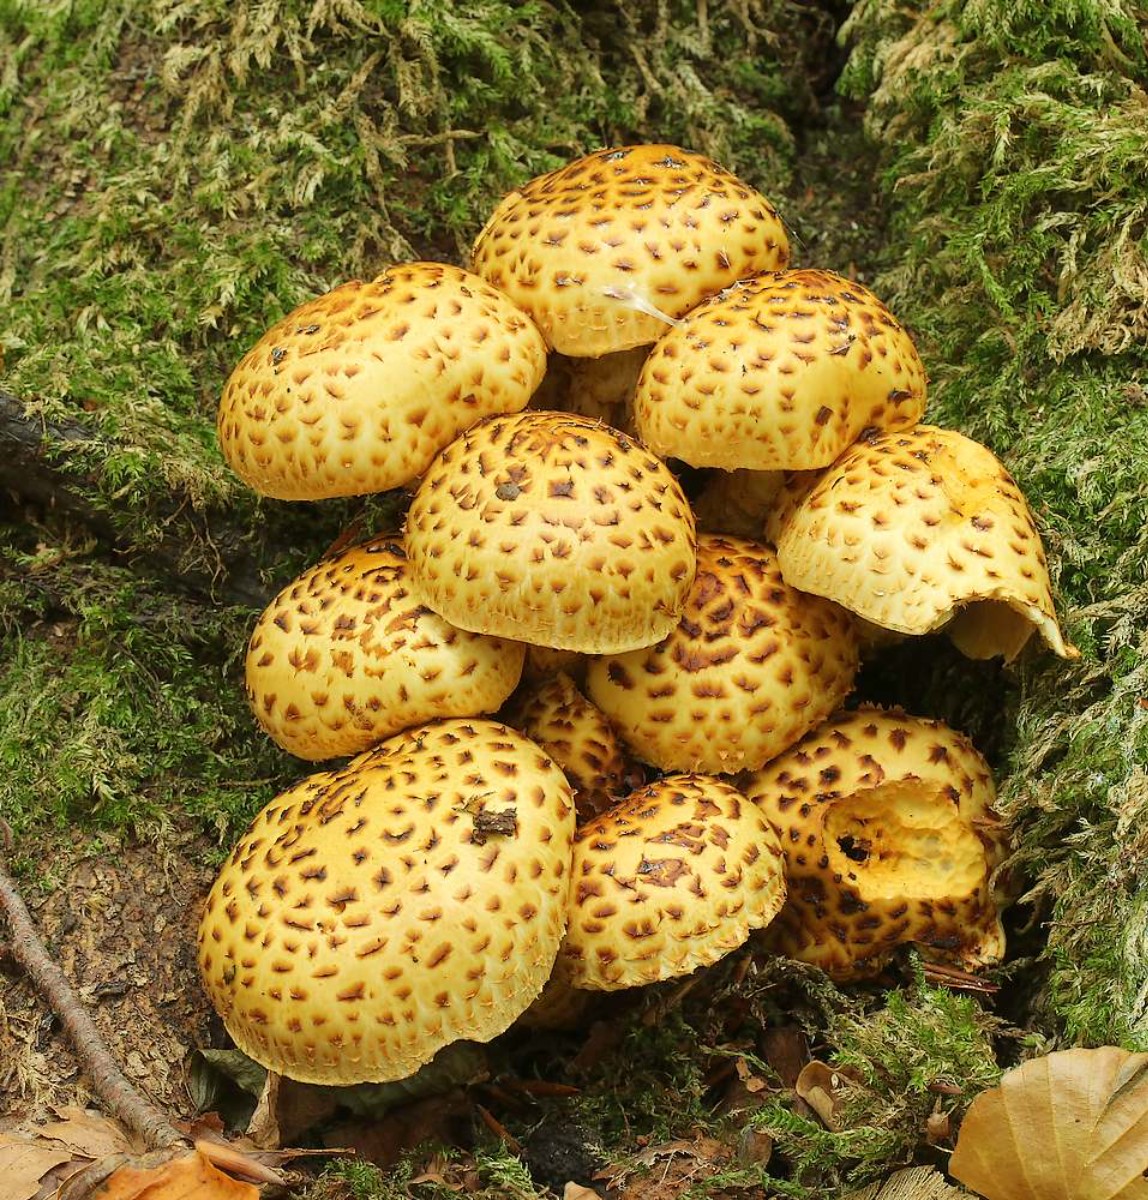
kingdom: Fungi
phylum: Basidiomycota
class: Agaricomycetes
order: Agaricales
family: Strophariaceae
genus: Pholiota
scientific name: Pholiota jahnii
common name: slimet skælhat
